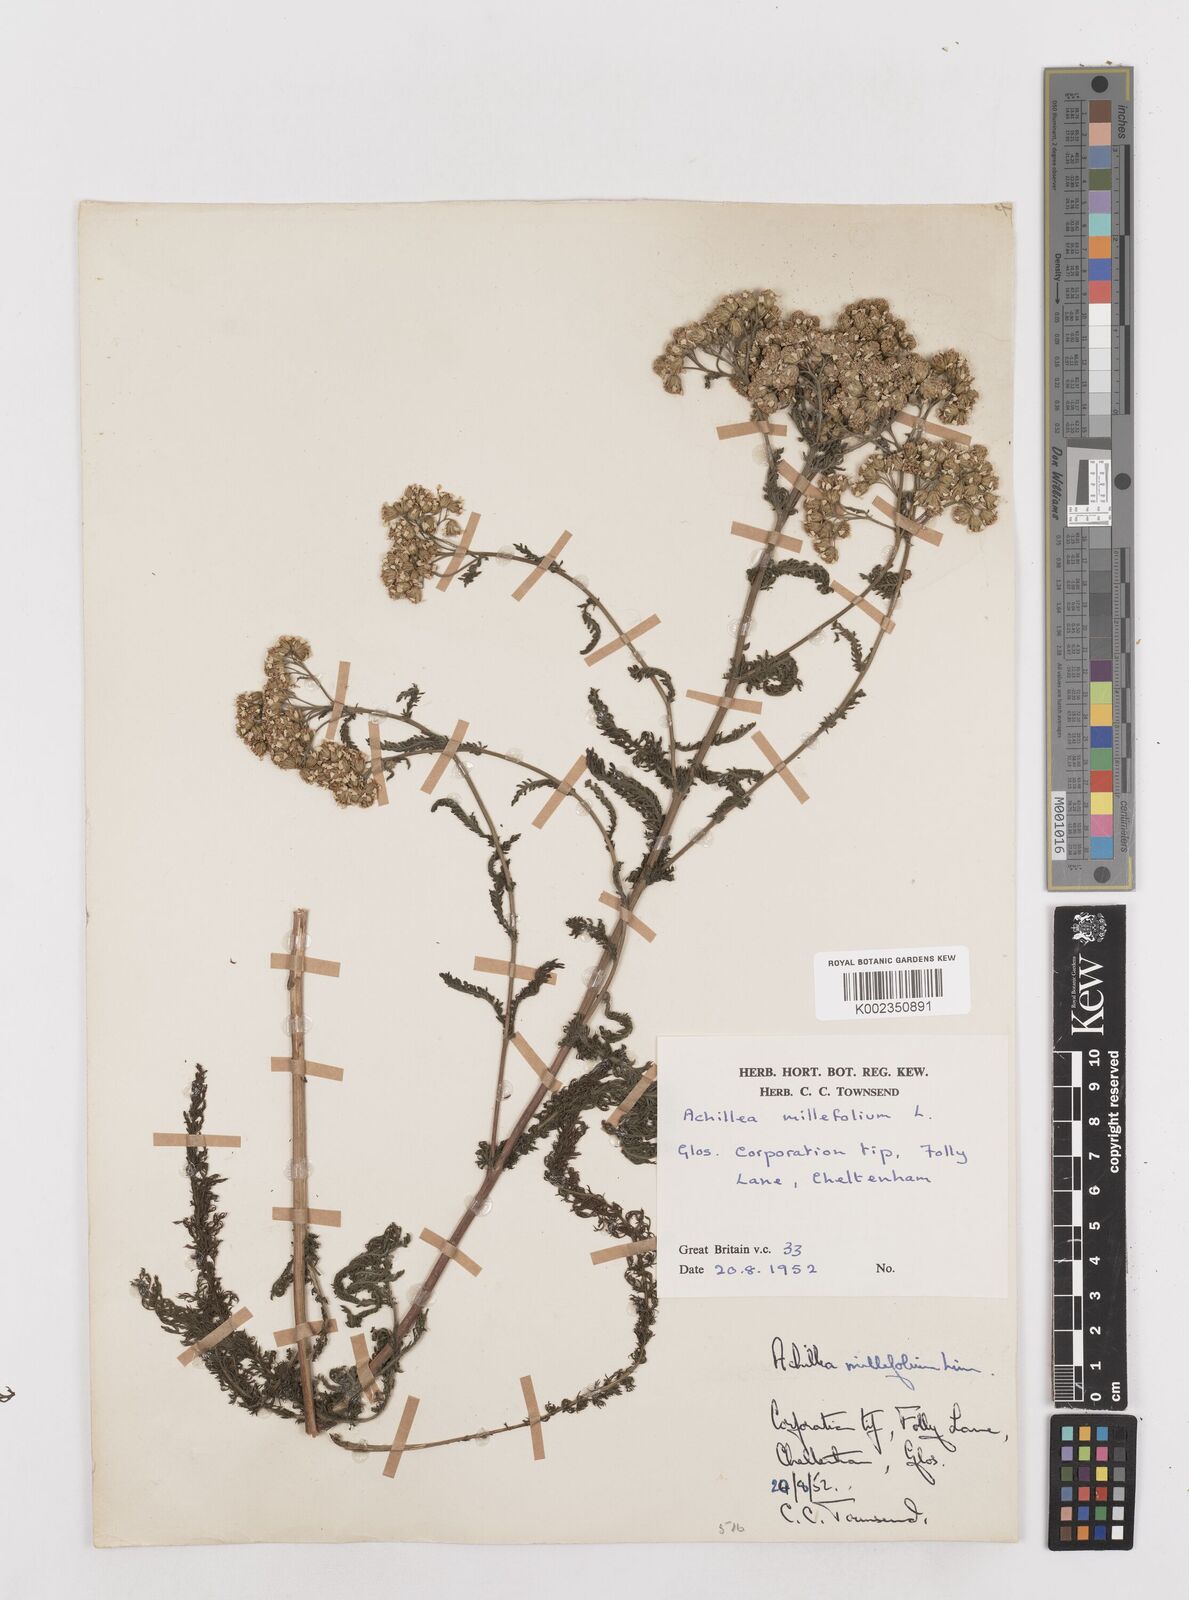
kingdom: Plantae
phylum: Tracheophyta
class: Magnoliopsida
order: Asterales
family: Asteraceae
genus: Achillea
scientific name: Achillea millefolium
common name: Yarrow
